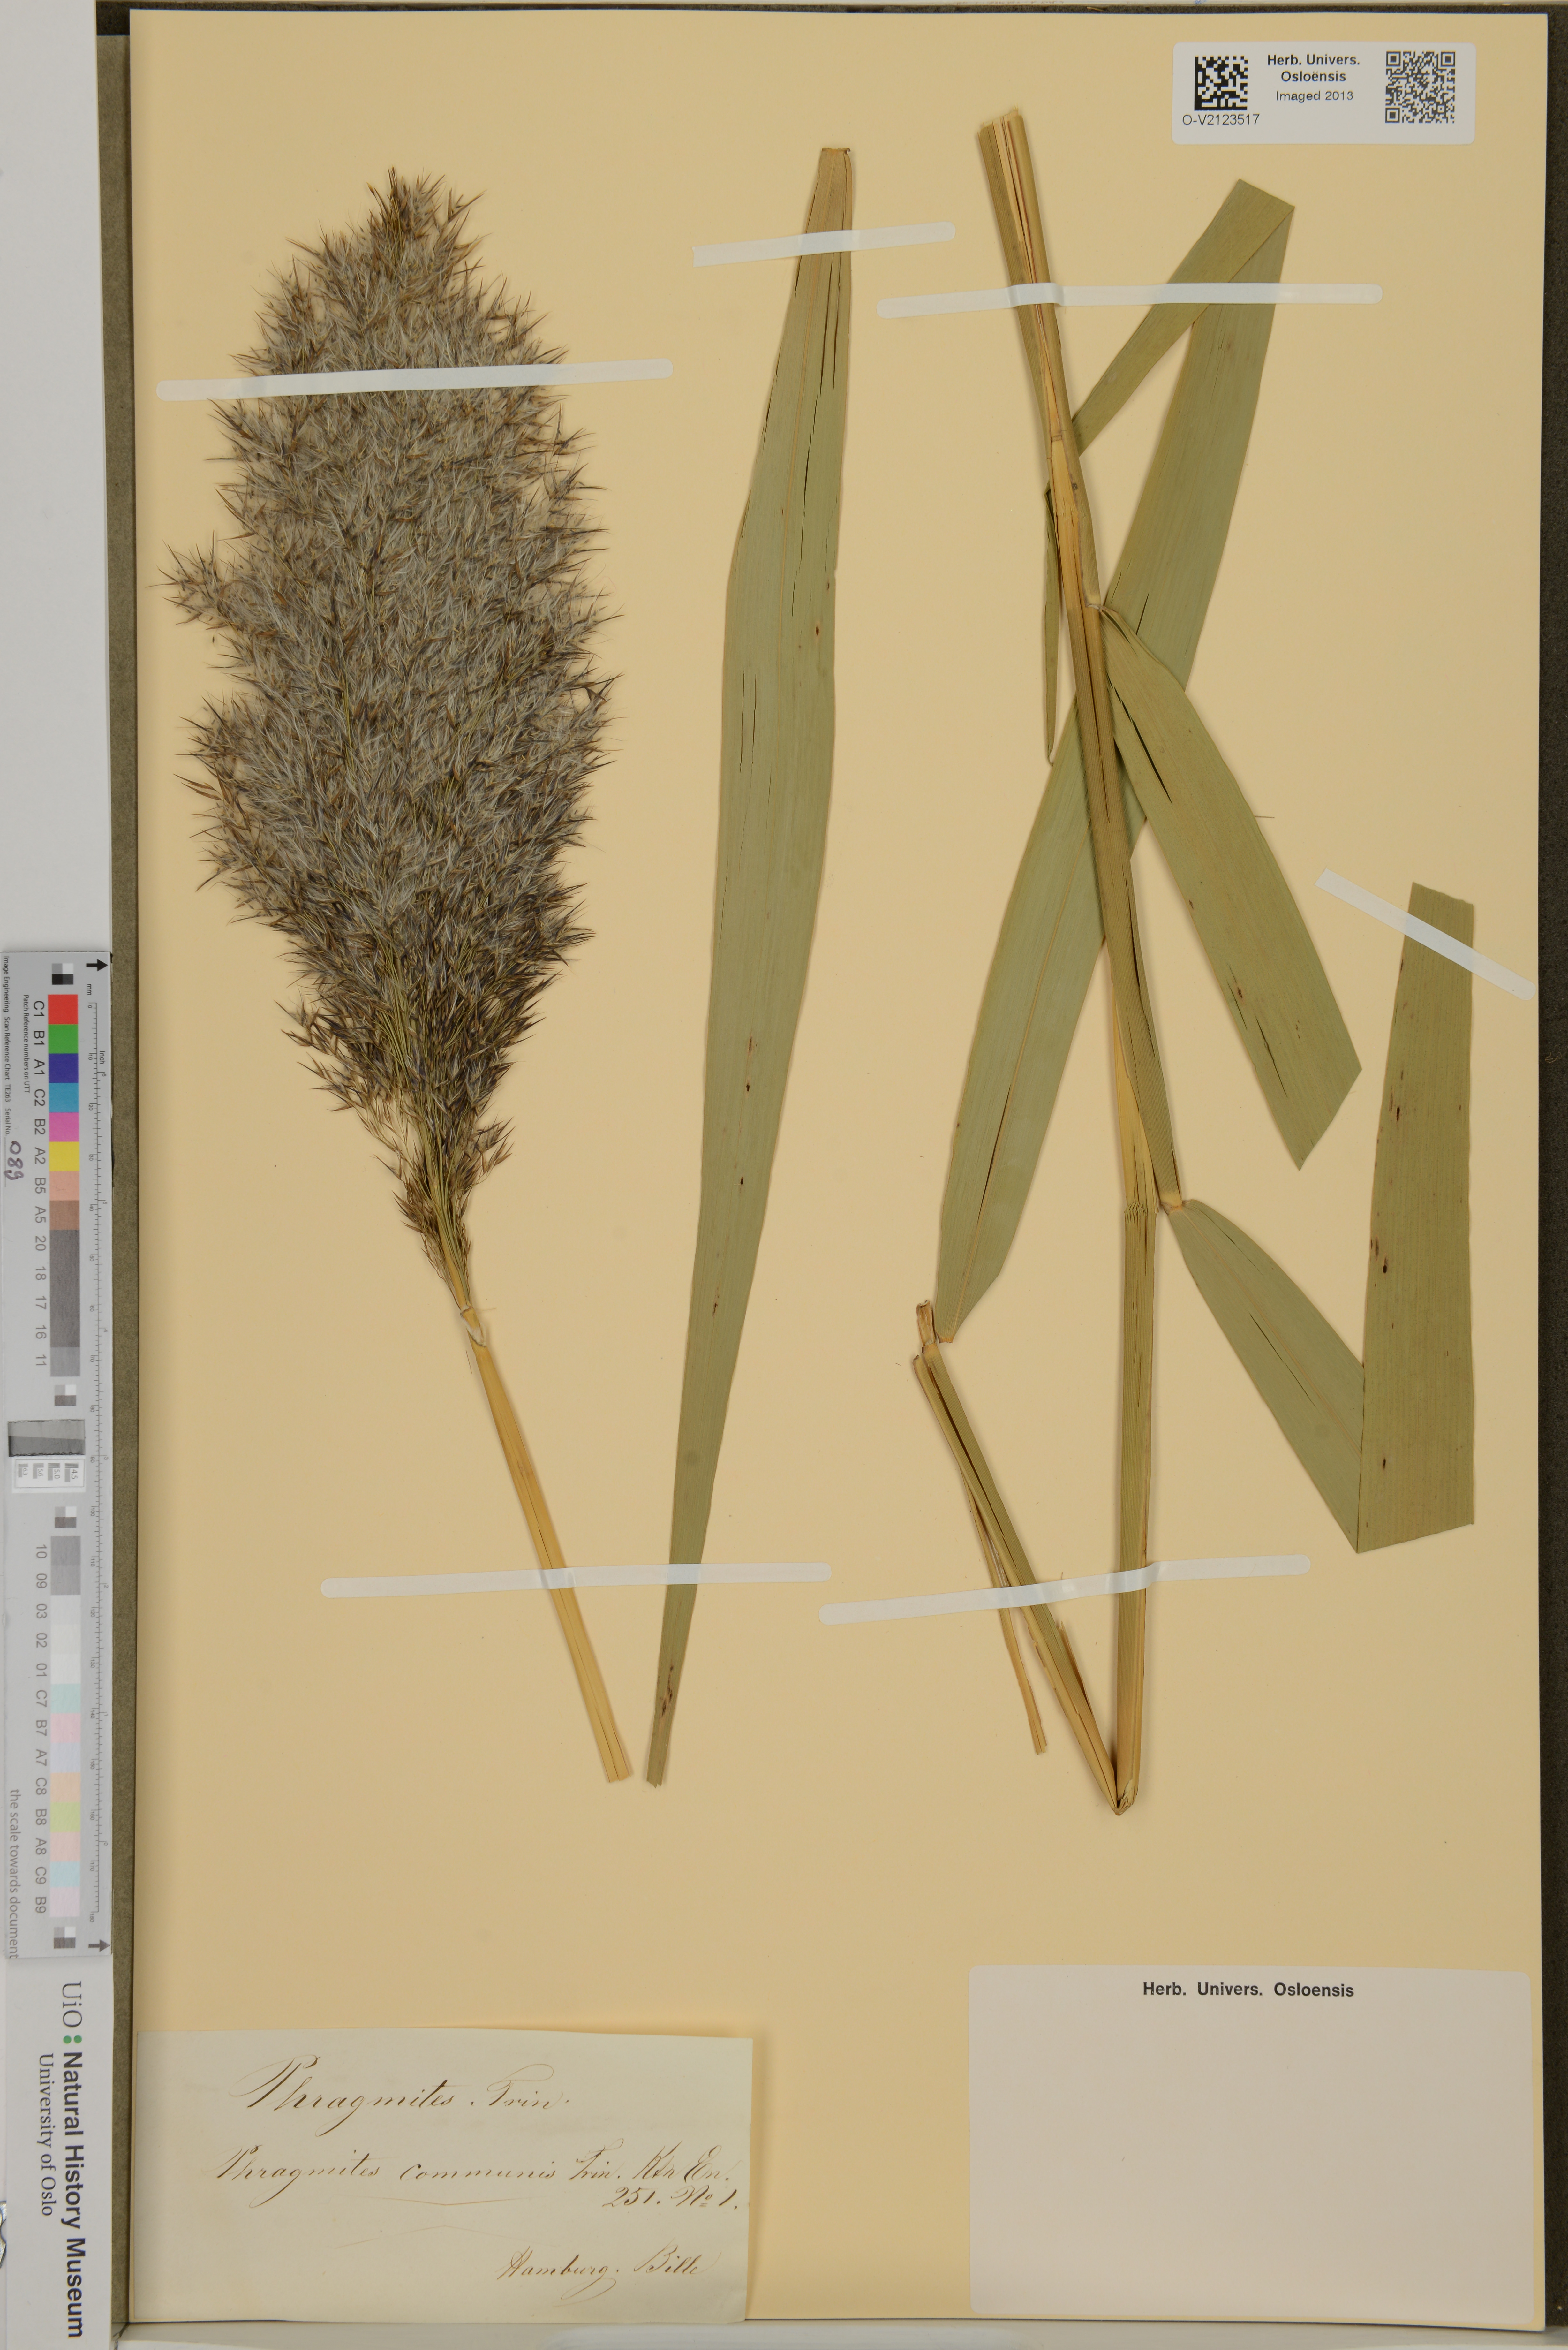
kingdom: Plantae
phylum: Tracheophyta
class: Liliopsida
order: Poales
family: Poaceae
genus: Phragmites
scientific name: Phragmites australis
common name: Common reed
